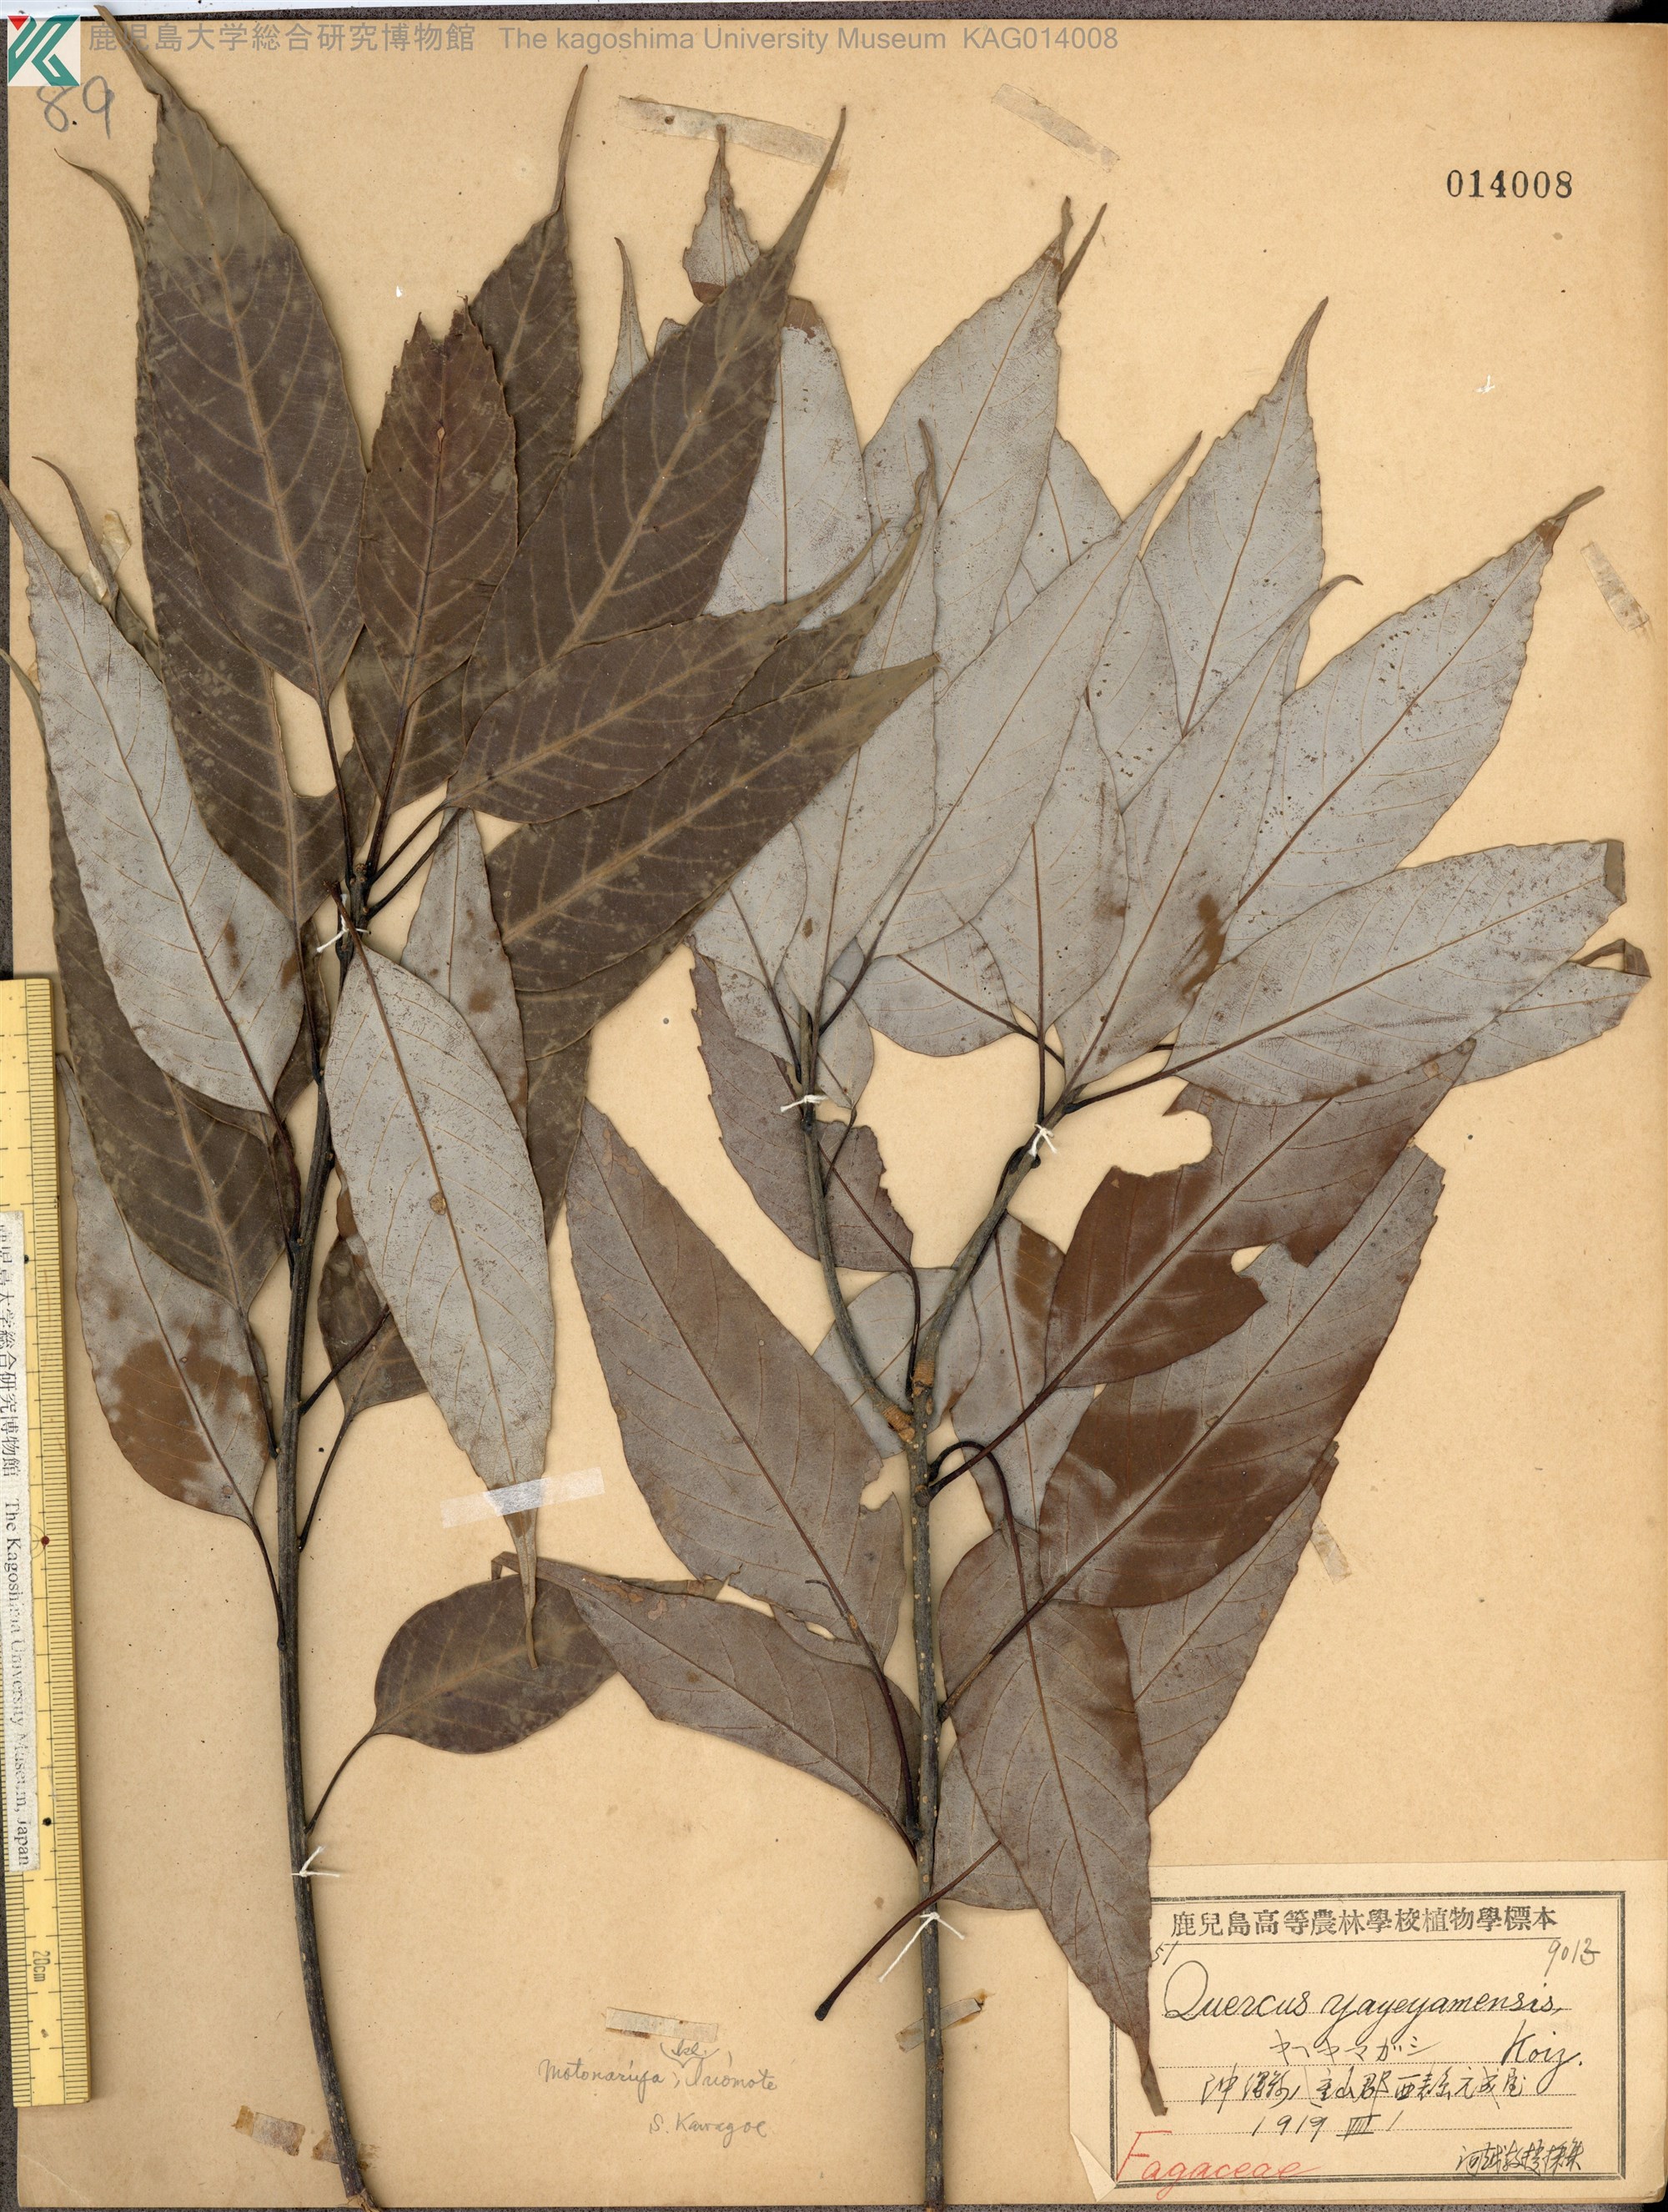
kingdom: Plantae
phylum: Tracheophyta
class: Magnoliopsida
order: Fagales
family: Fagaceae
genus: Quercus
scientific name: Quercus miyagii
